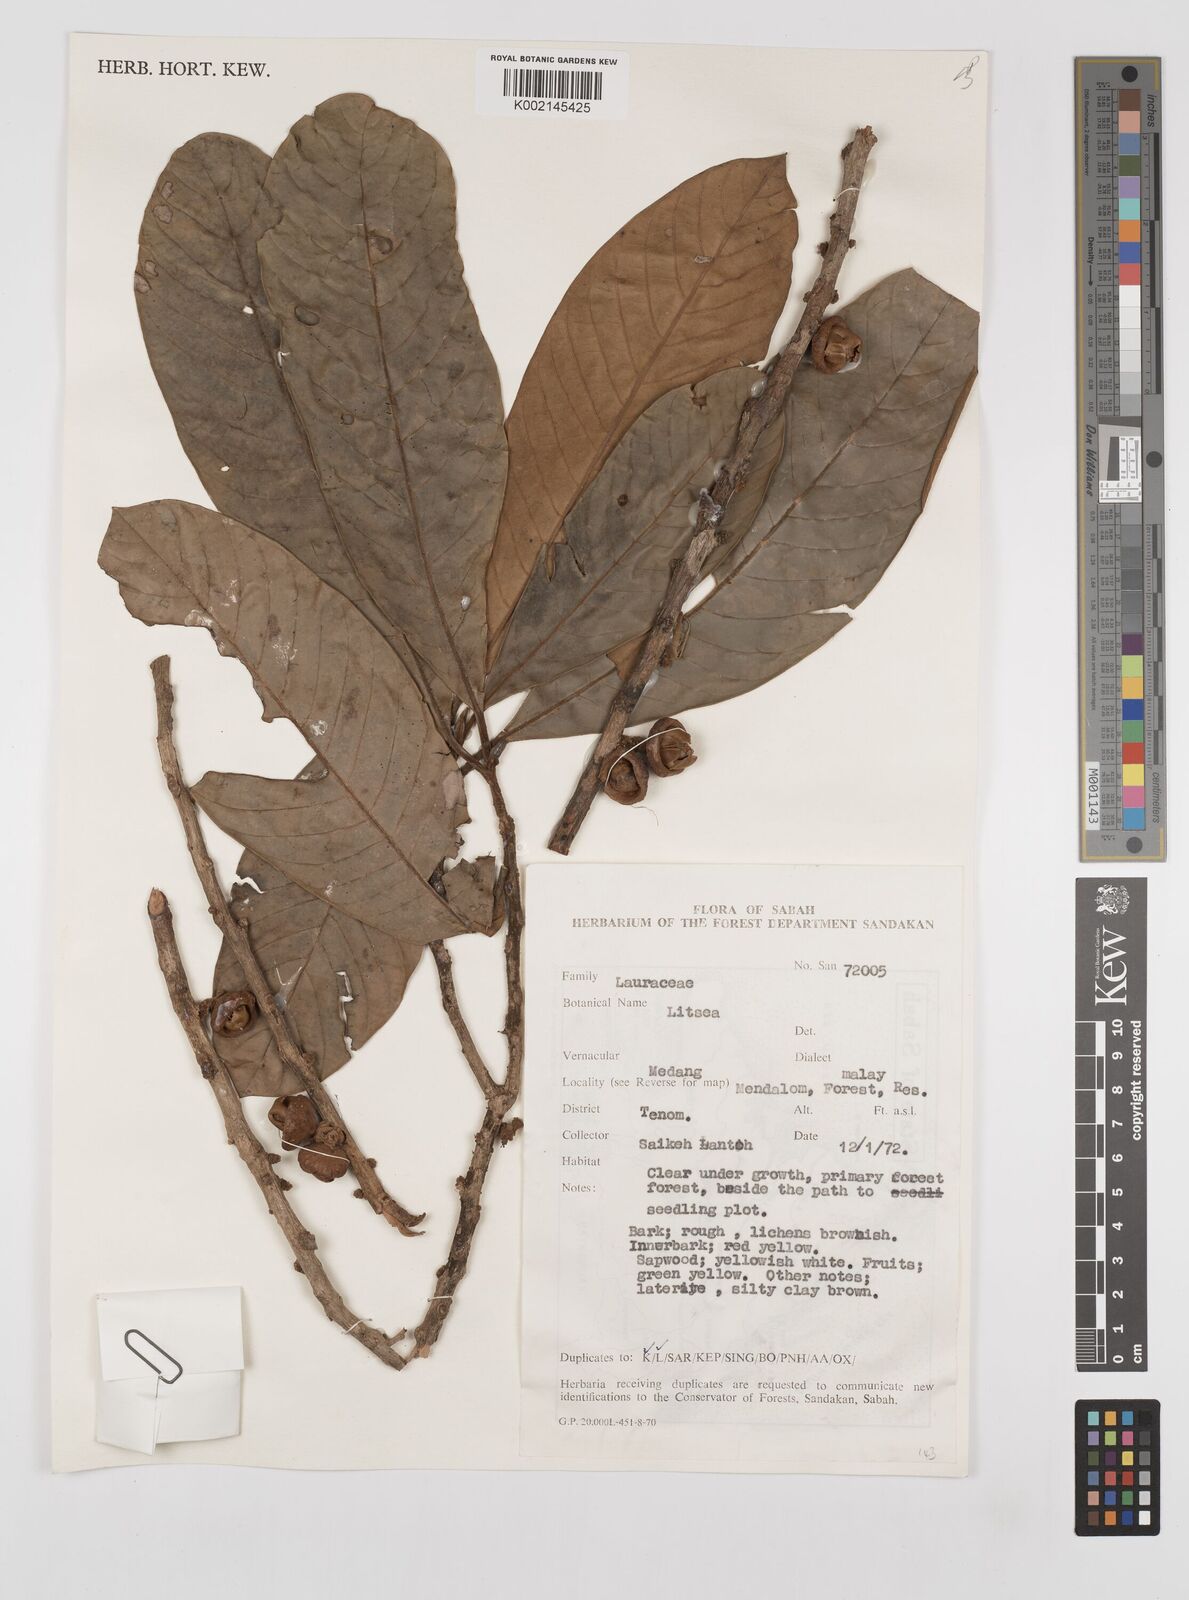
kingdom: Plantae
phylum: Tracheophyta
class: Magnoliopsida
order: Laurales
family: Lauraceae
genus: Litsea
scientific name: Litsea
